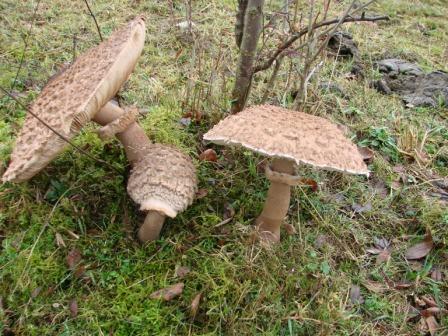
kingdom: Fungi
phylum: Basidiomycota
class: Agaricomycetes
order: Agaricales
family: Agaricaceae
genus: Macrolepiota
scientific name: Macrolepiota procera
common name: stor kæmpeparasolhat
